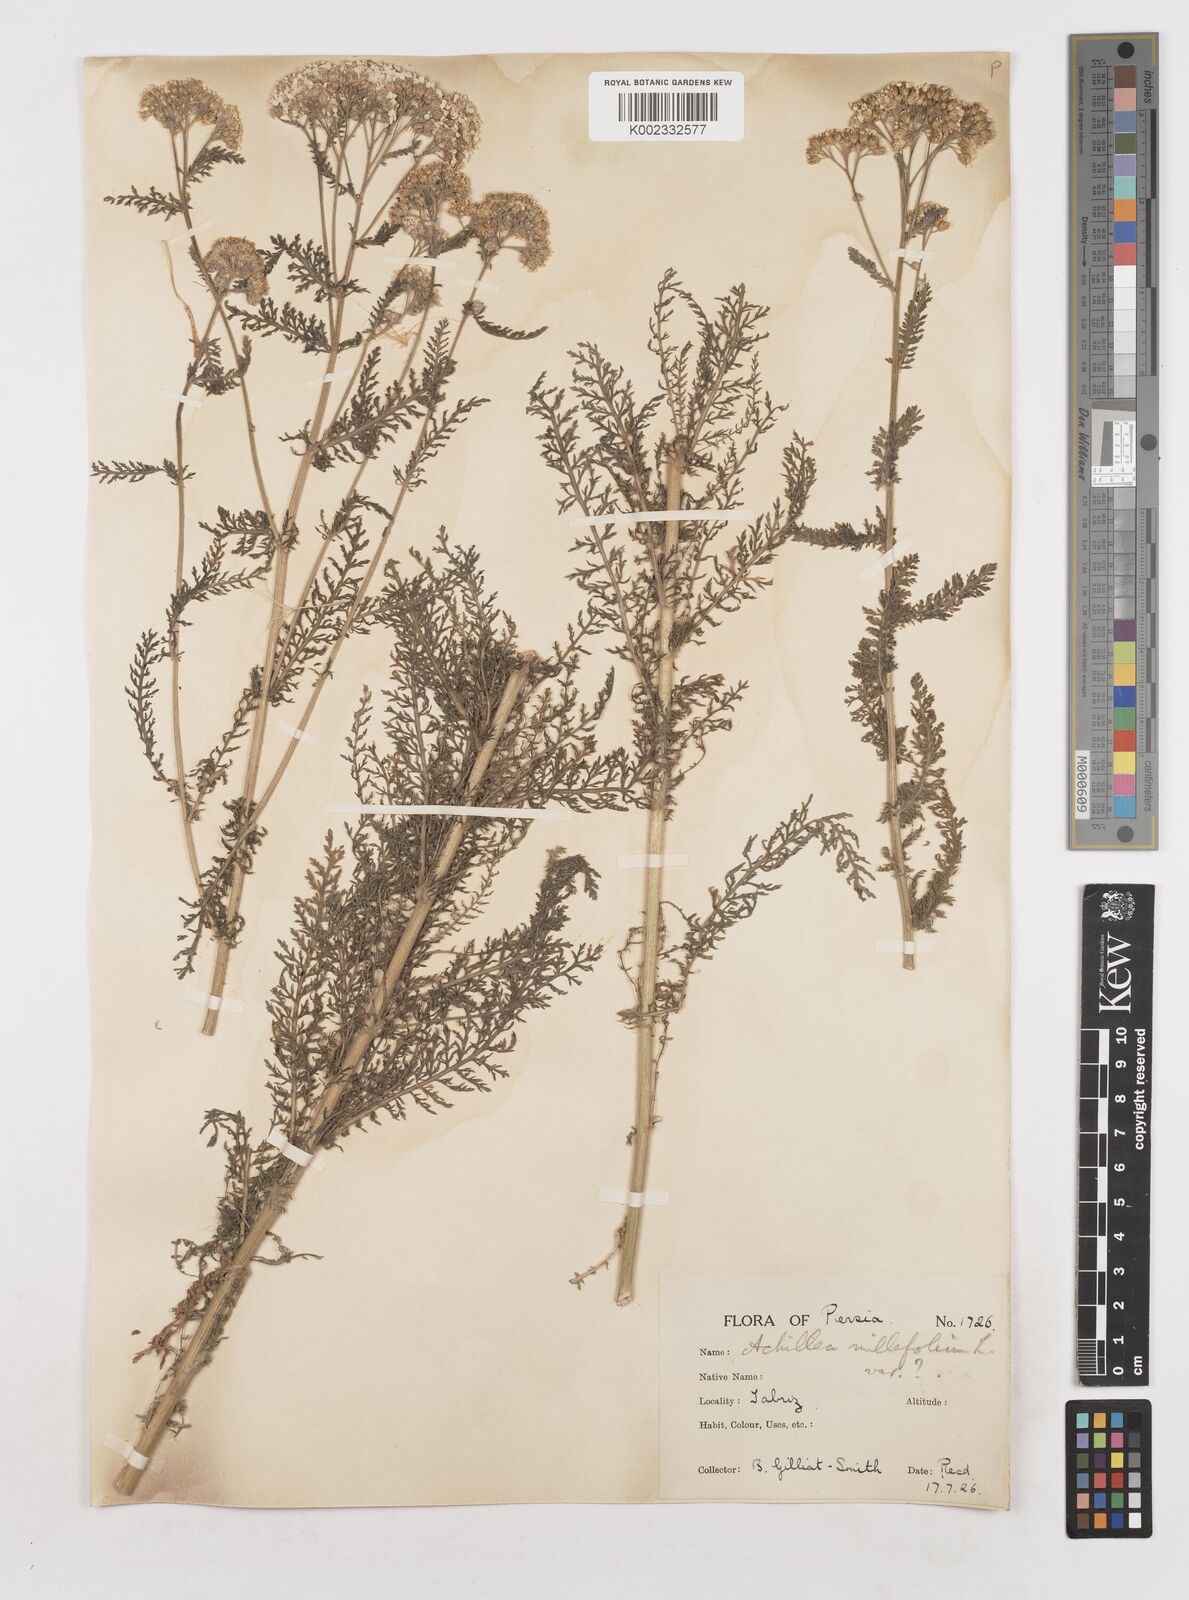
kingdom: Plantae
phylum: Tracheophyta
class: Magnoliopsida
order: Asterales
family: Asteraceae
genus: Achillea
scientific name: Achillea millefolium
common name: Yarrow
